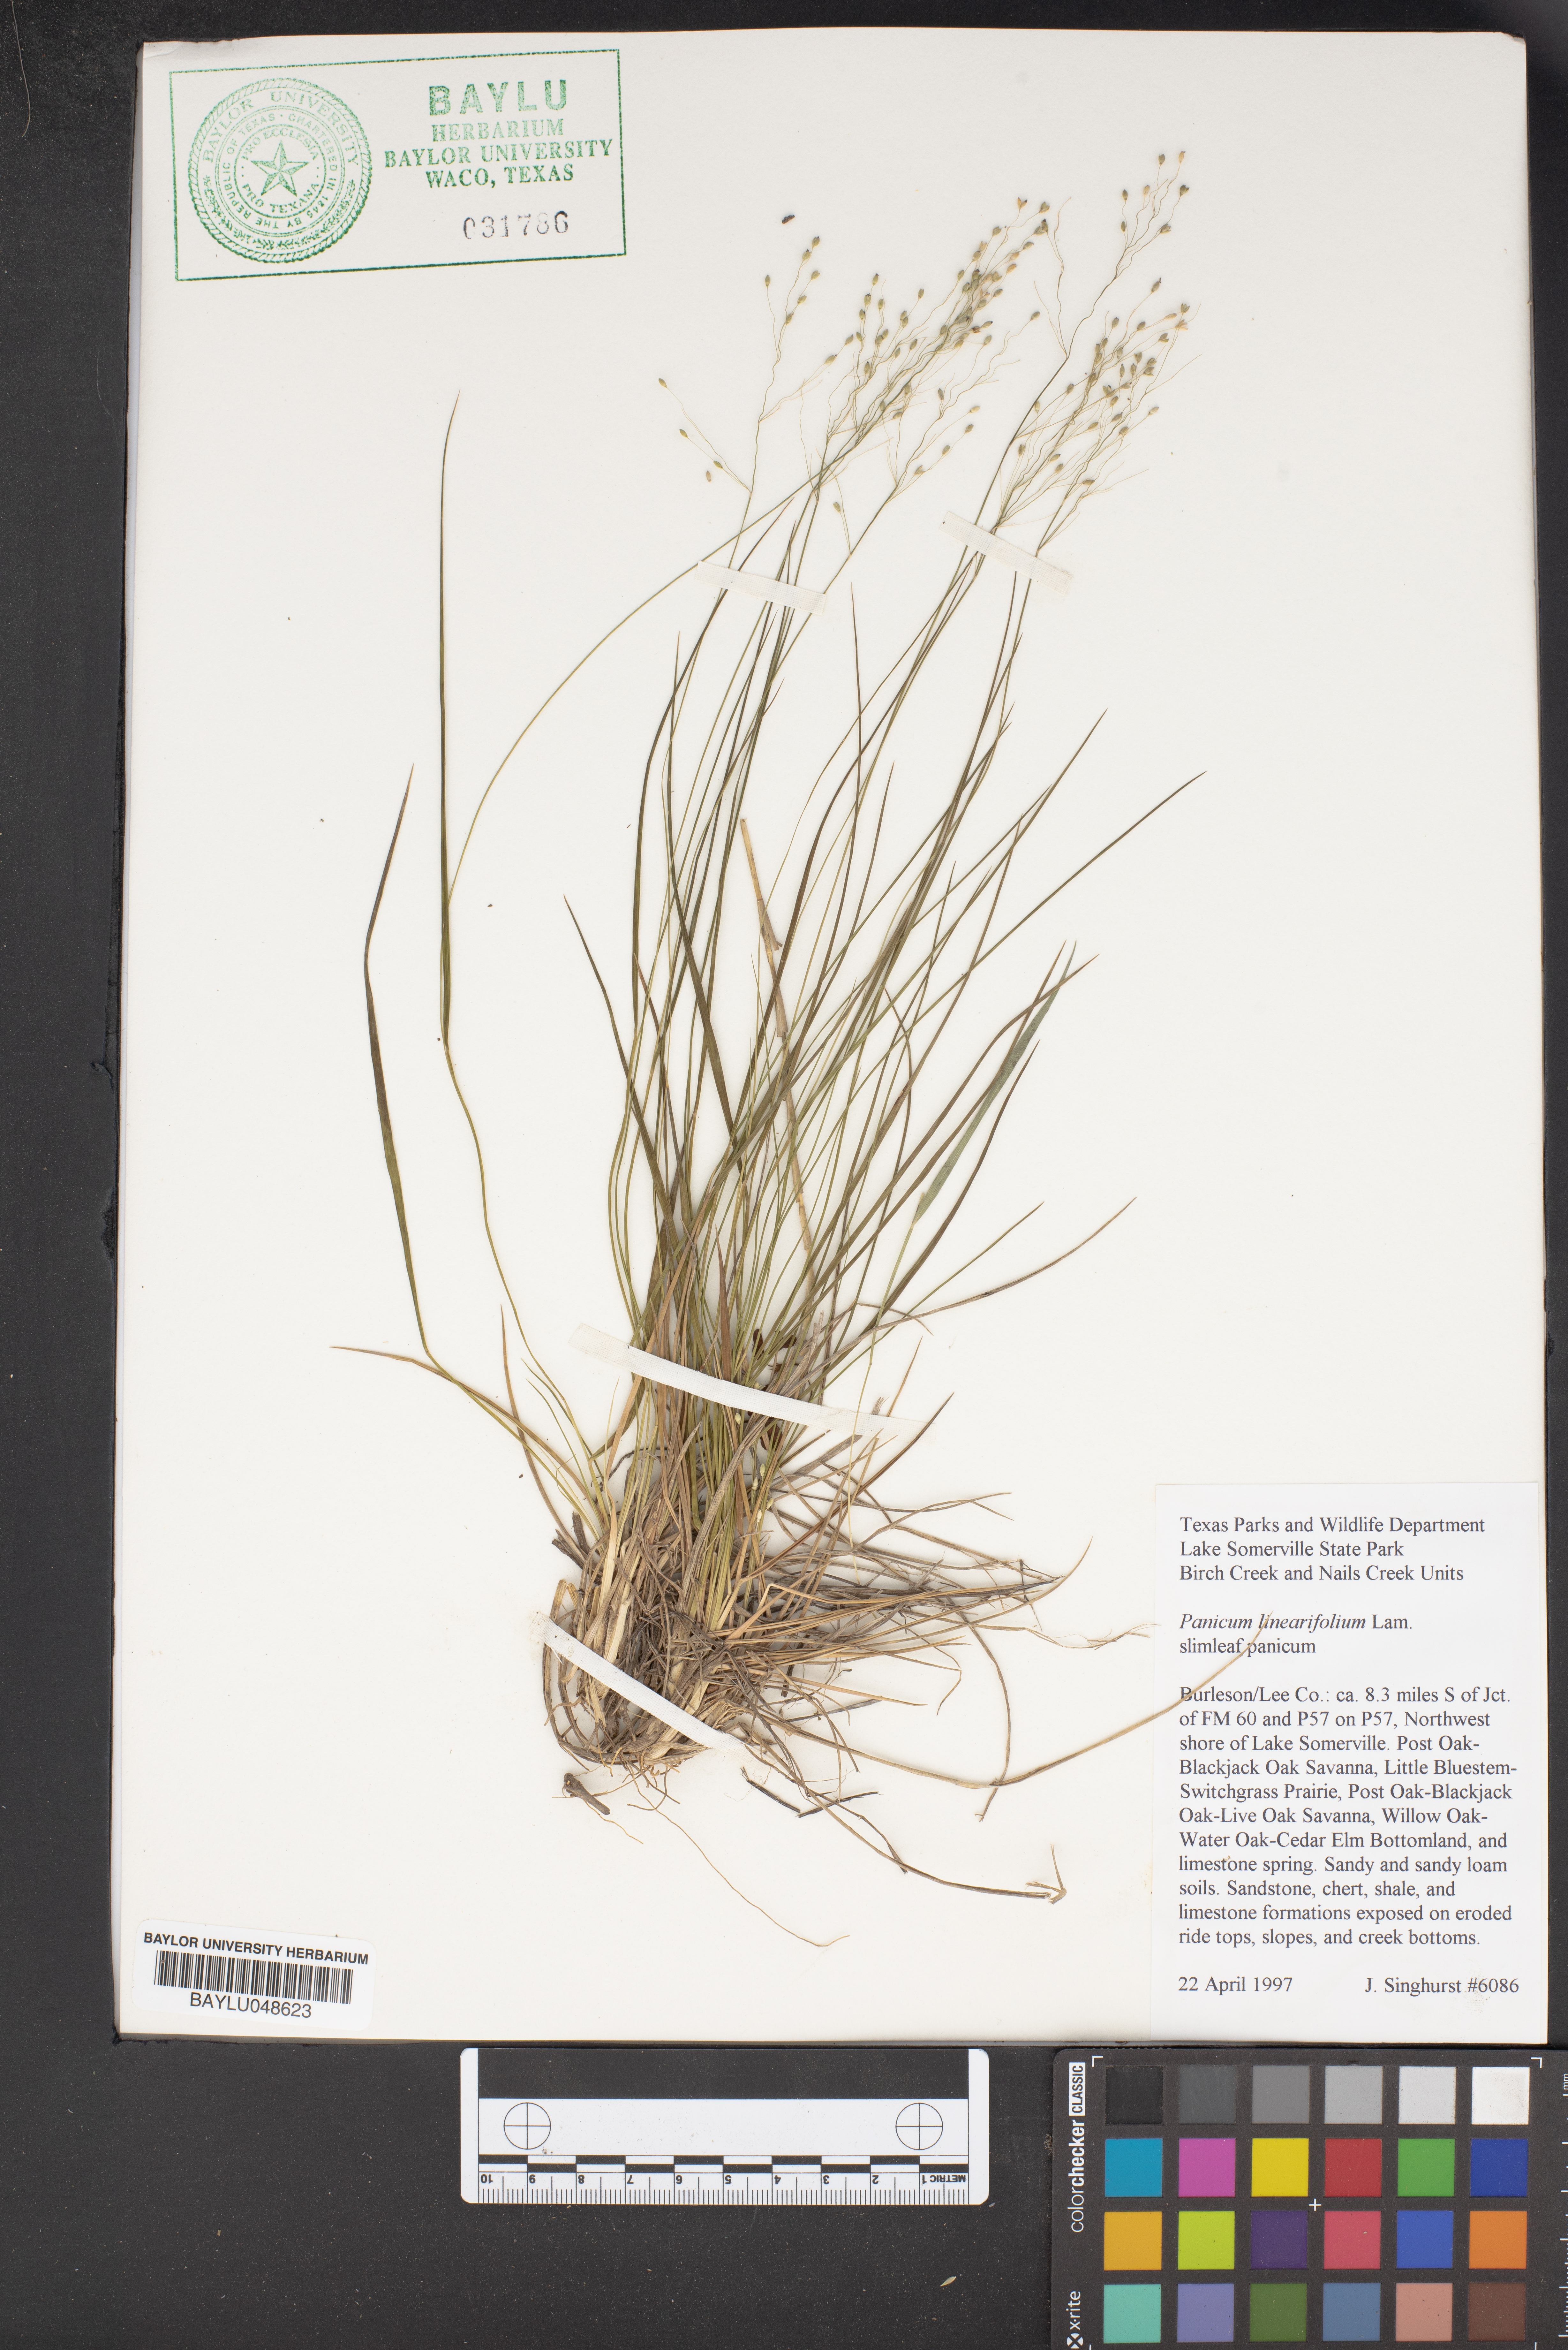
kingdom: Plantae
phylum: Tracheophyta
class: Liliopsida
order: Poales
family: Poaceae
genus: Dichanthelium
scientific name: Dichanthelium linearifolium
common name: Linear-leaved panicgrass
